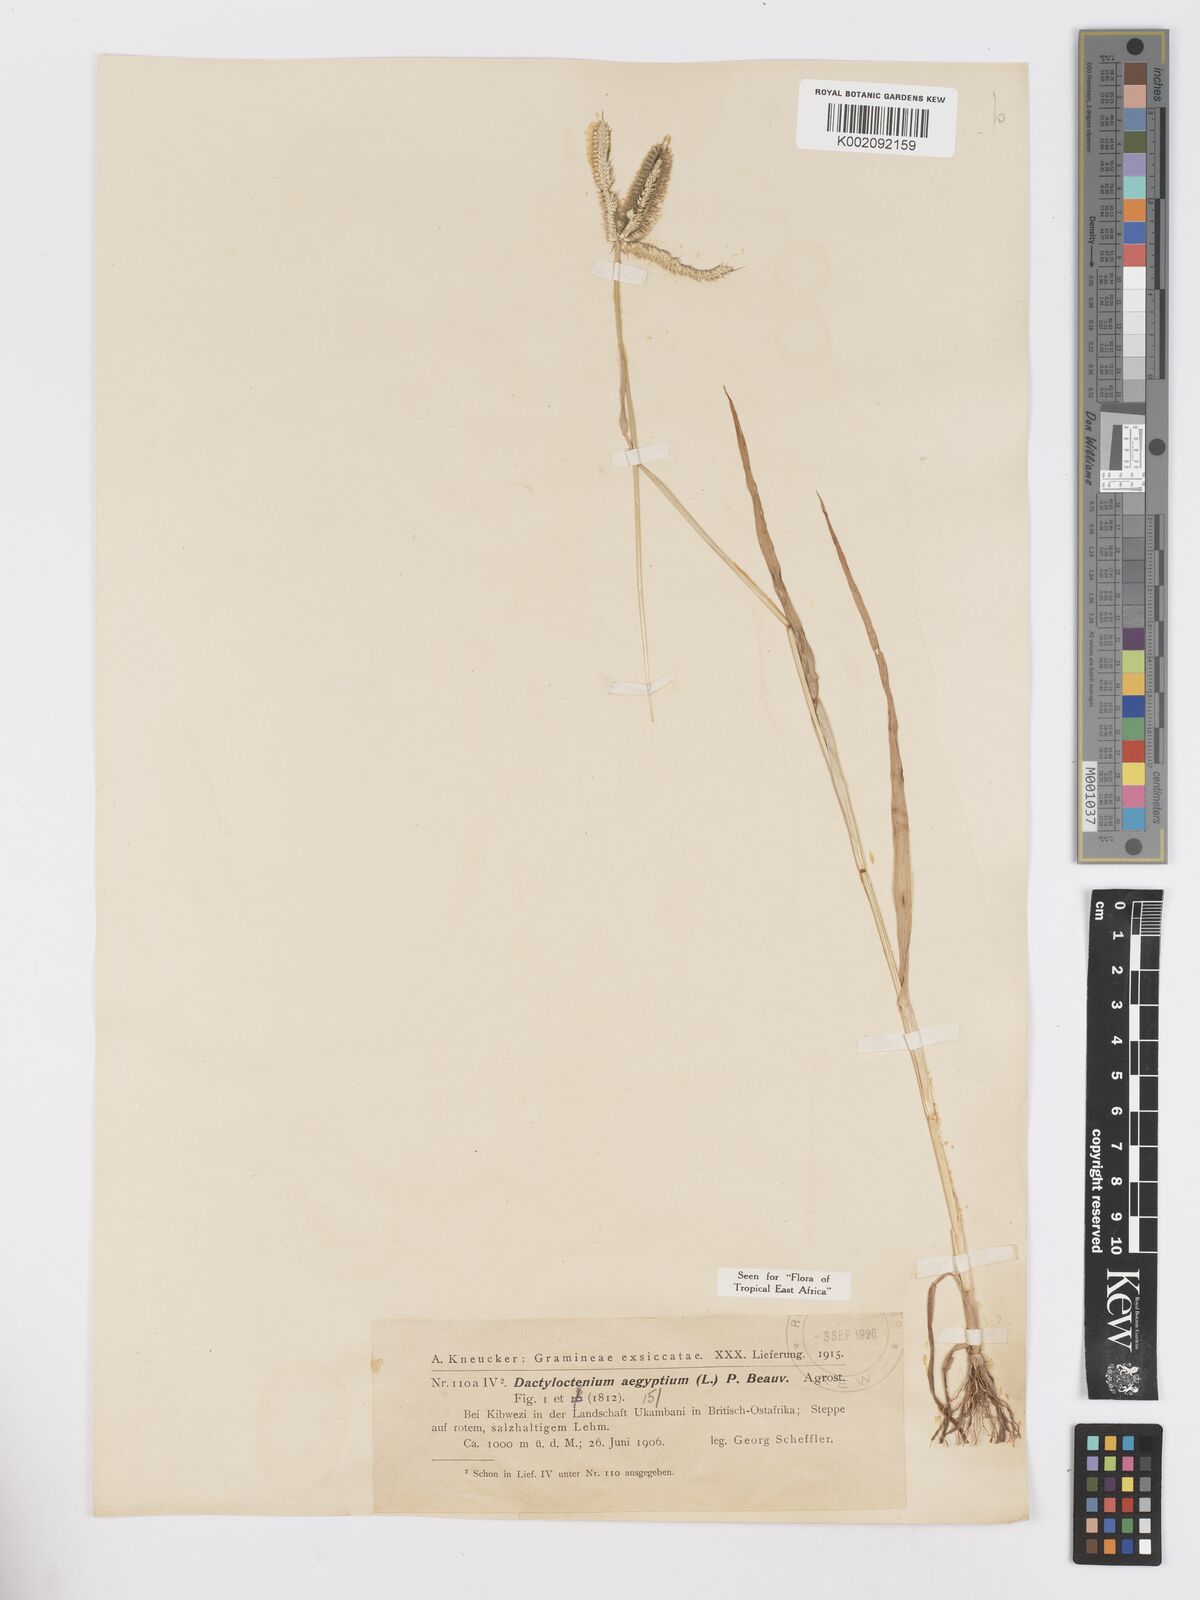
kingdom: Plantae
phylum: Tracheophyta
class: Liliopsida
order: Poales
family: Poaceae
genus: Dactyloctenium
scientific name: Dactyloctenium aegyptium
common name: Egyptian grass
